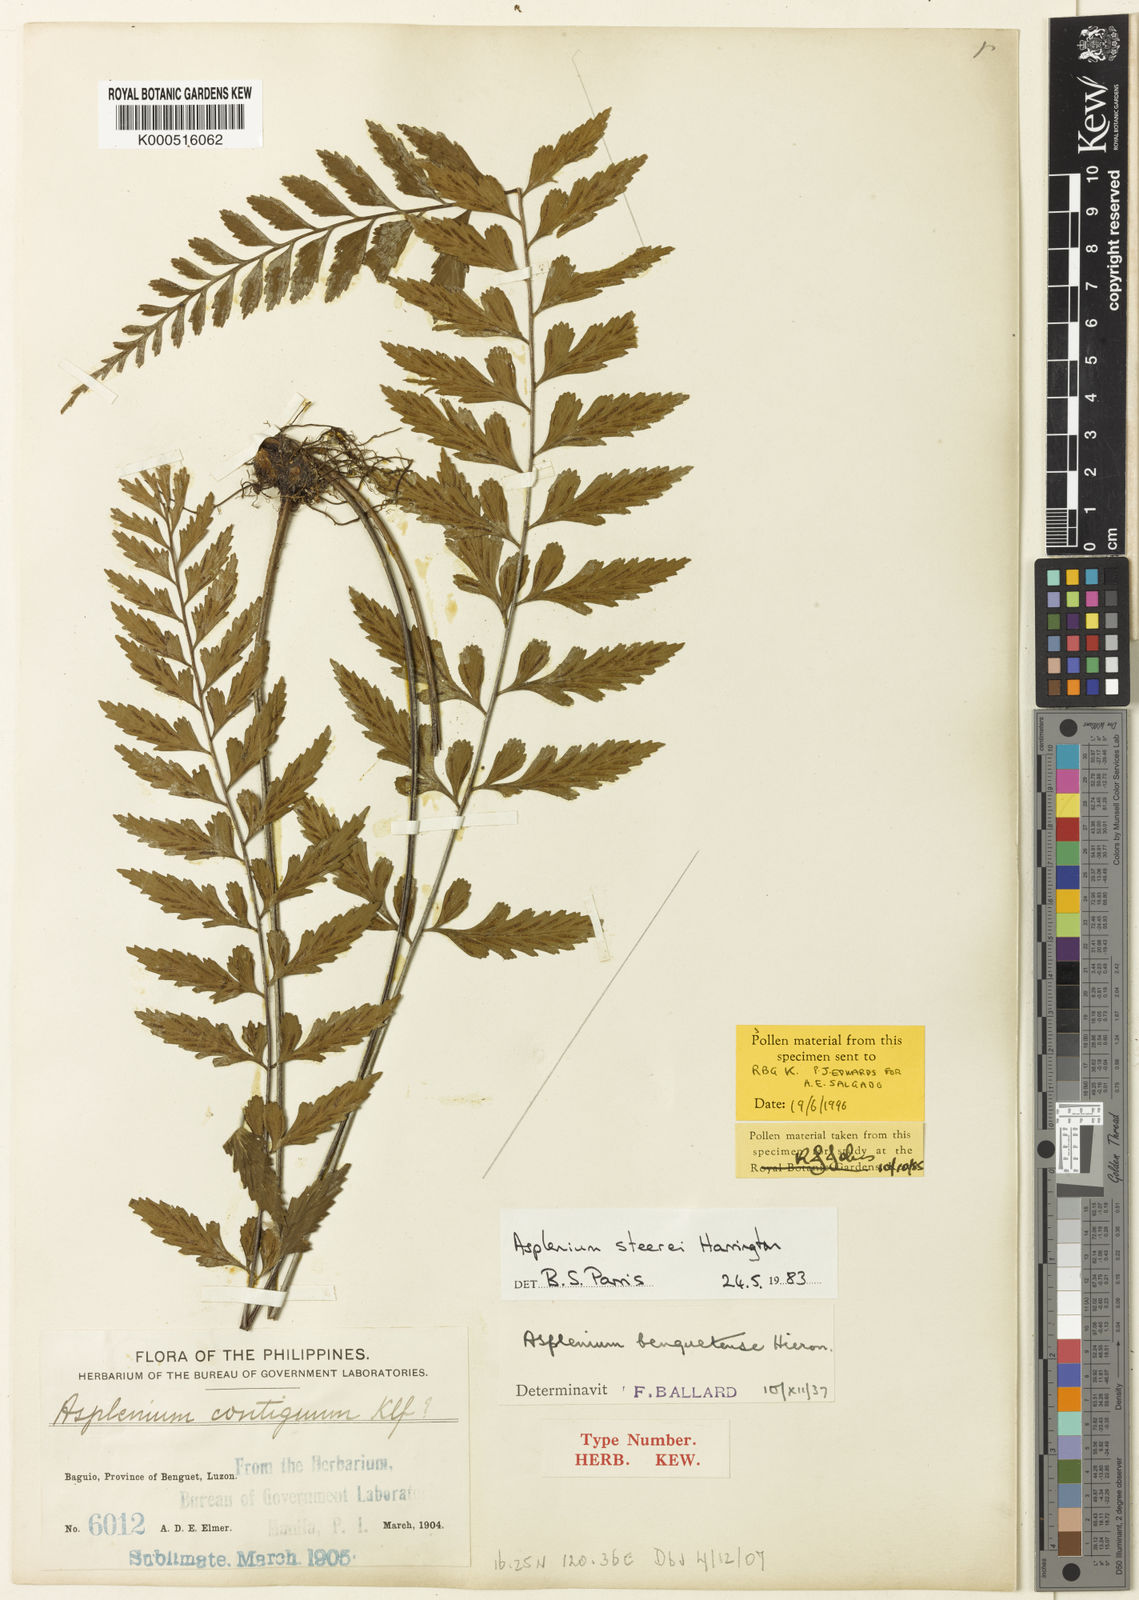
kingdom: Plantae
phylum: Tracheophyta
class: Polypodiopsida
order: Polypodiales
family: Aspleniaceae
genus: Asplenium
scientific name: Asplenium steerei
